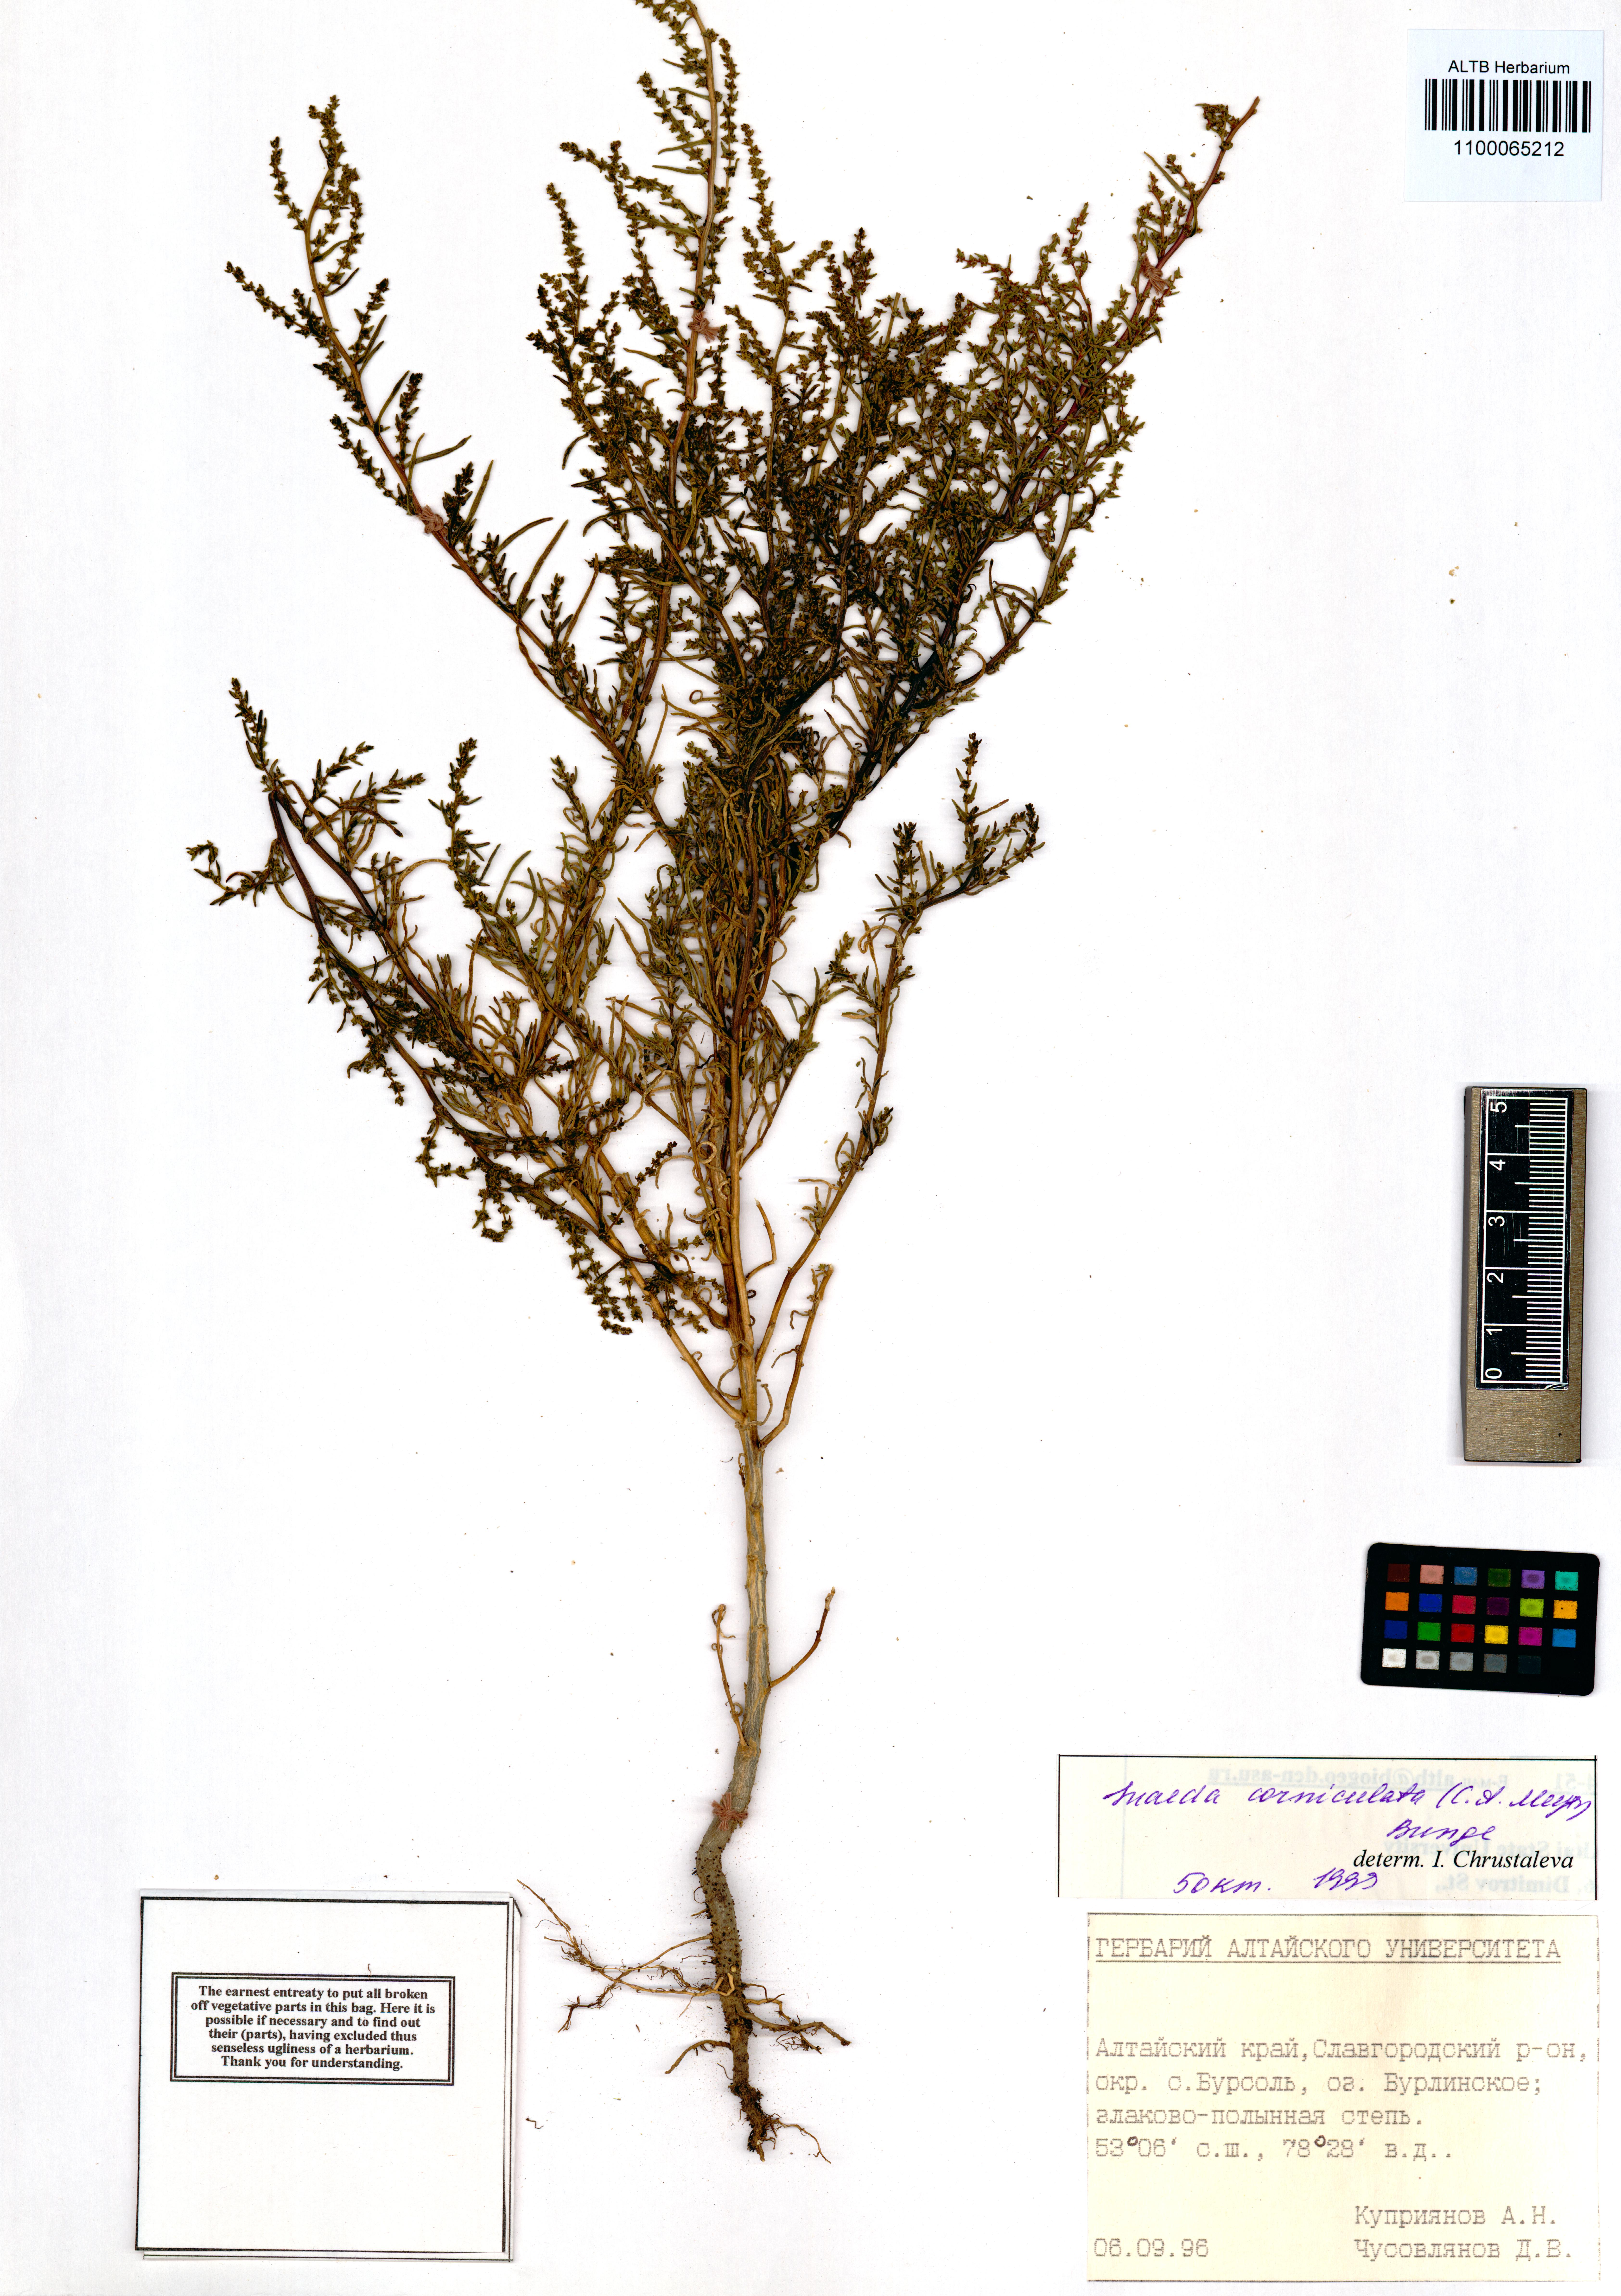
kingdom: Plantae
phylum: Tracheophyta
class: Magnoliopsida
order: Caryophyllales
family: Amaranthaceae
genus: Suaeda
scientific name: Suaeda corniculata
